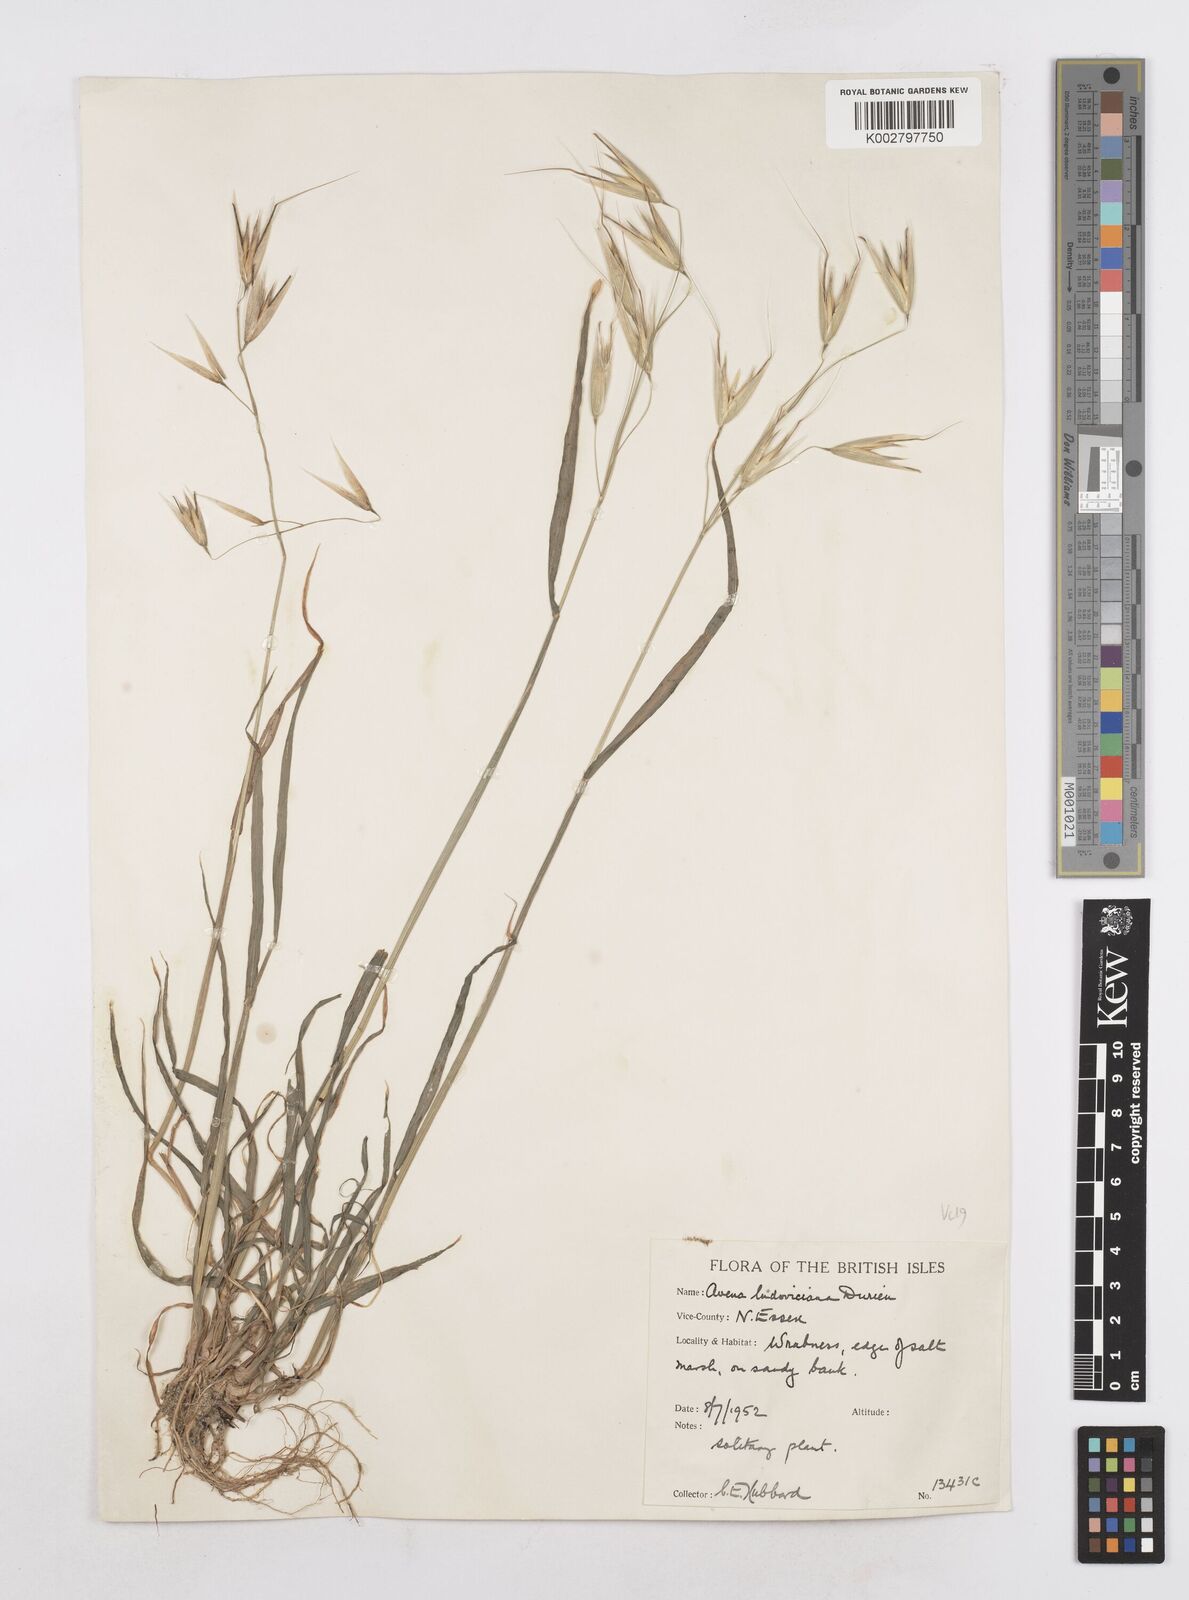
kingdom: Plantae
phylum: Tracheophyta
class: Liliopsida
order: Poales
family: Poaceae
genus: Avena
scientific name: Avena sterilis
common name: Animated oat
